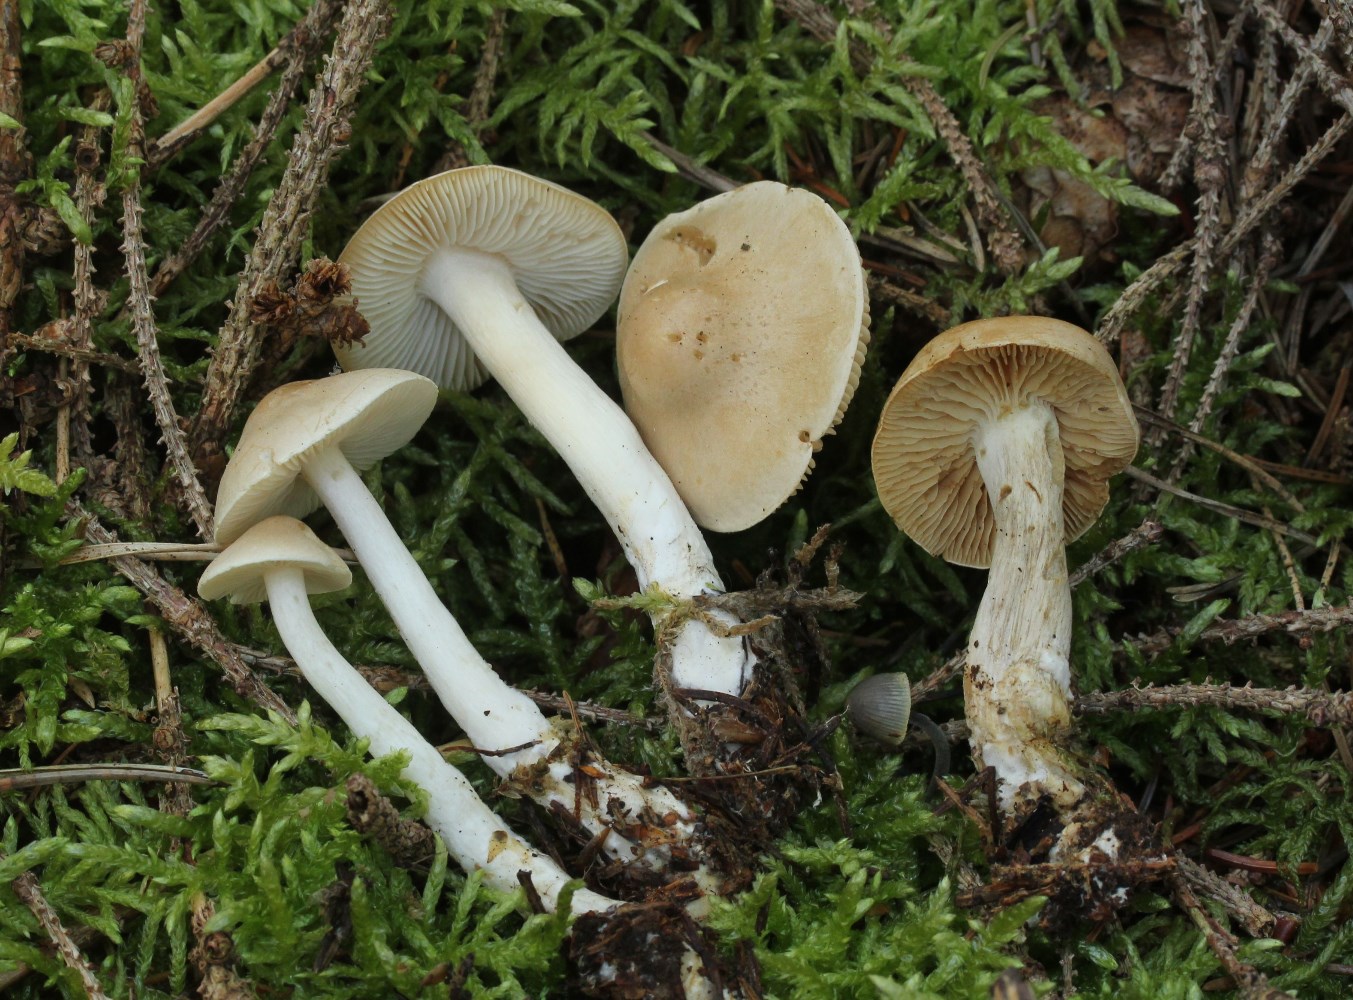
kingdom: Fungi
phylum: Basidiomycota
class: Agaricomycetes
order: Agaricales
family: Tricholomataceae
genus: Tricholoma
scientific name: Tricholoma inamoenum
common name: højstokket ridderhat
